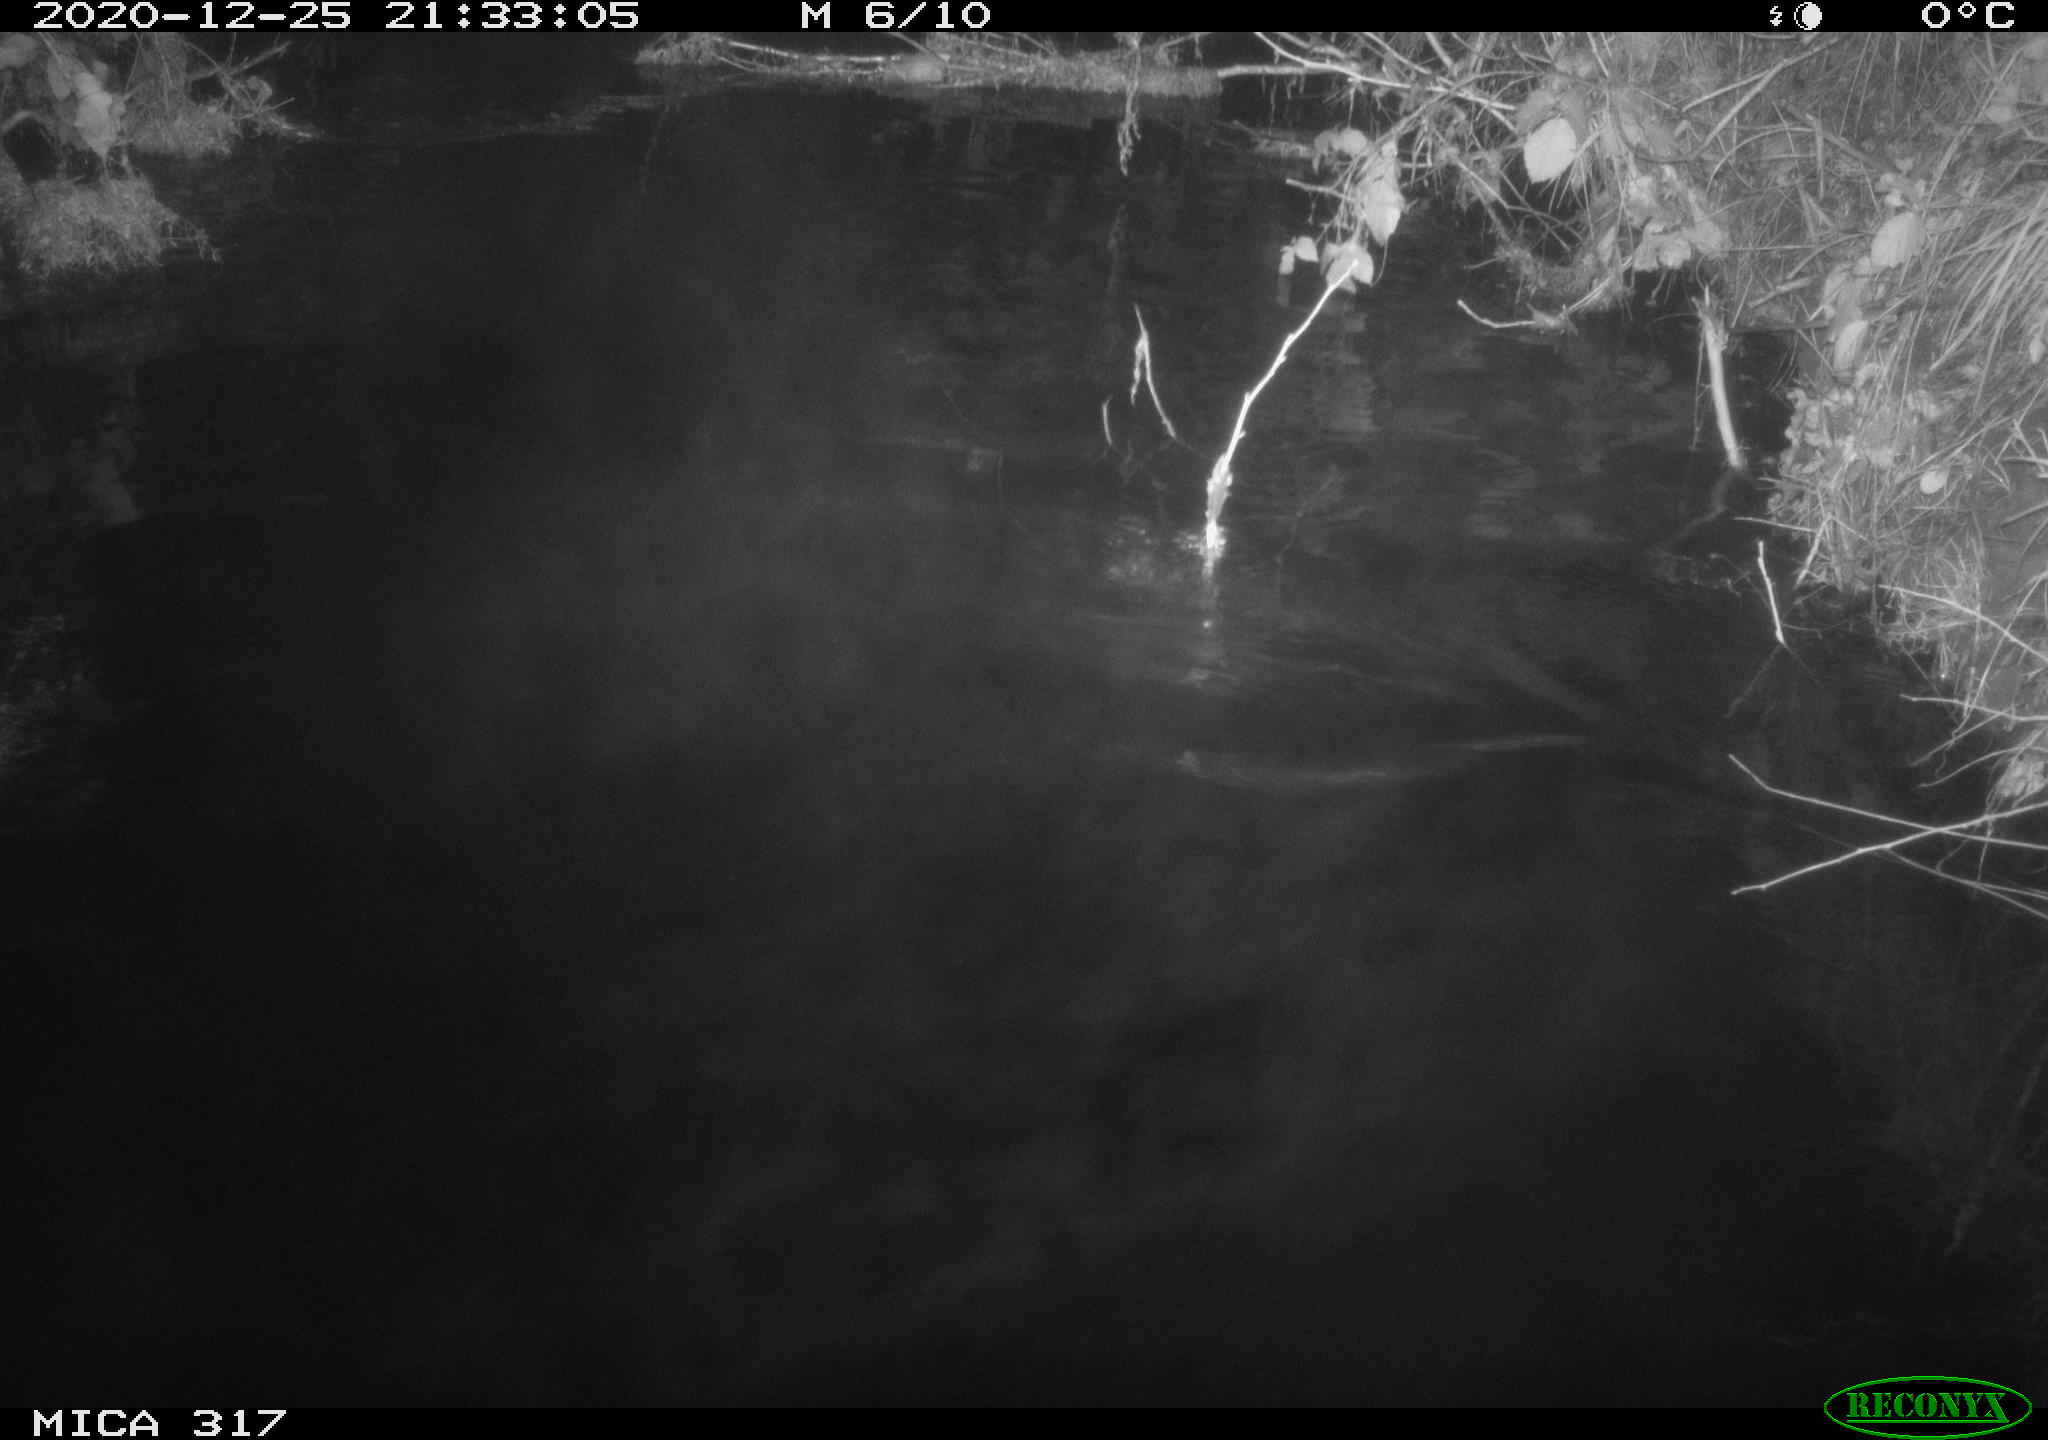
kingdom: Animalia
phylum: Chordata
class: Aves
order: Anseriformes
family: Anatidae
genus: Anas
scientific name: Anas platyrhynchos
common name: Mallard
